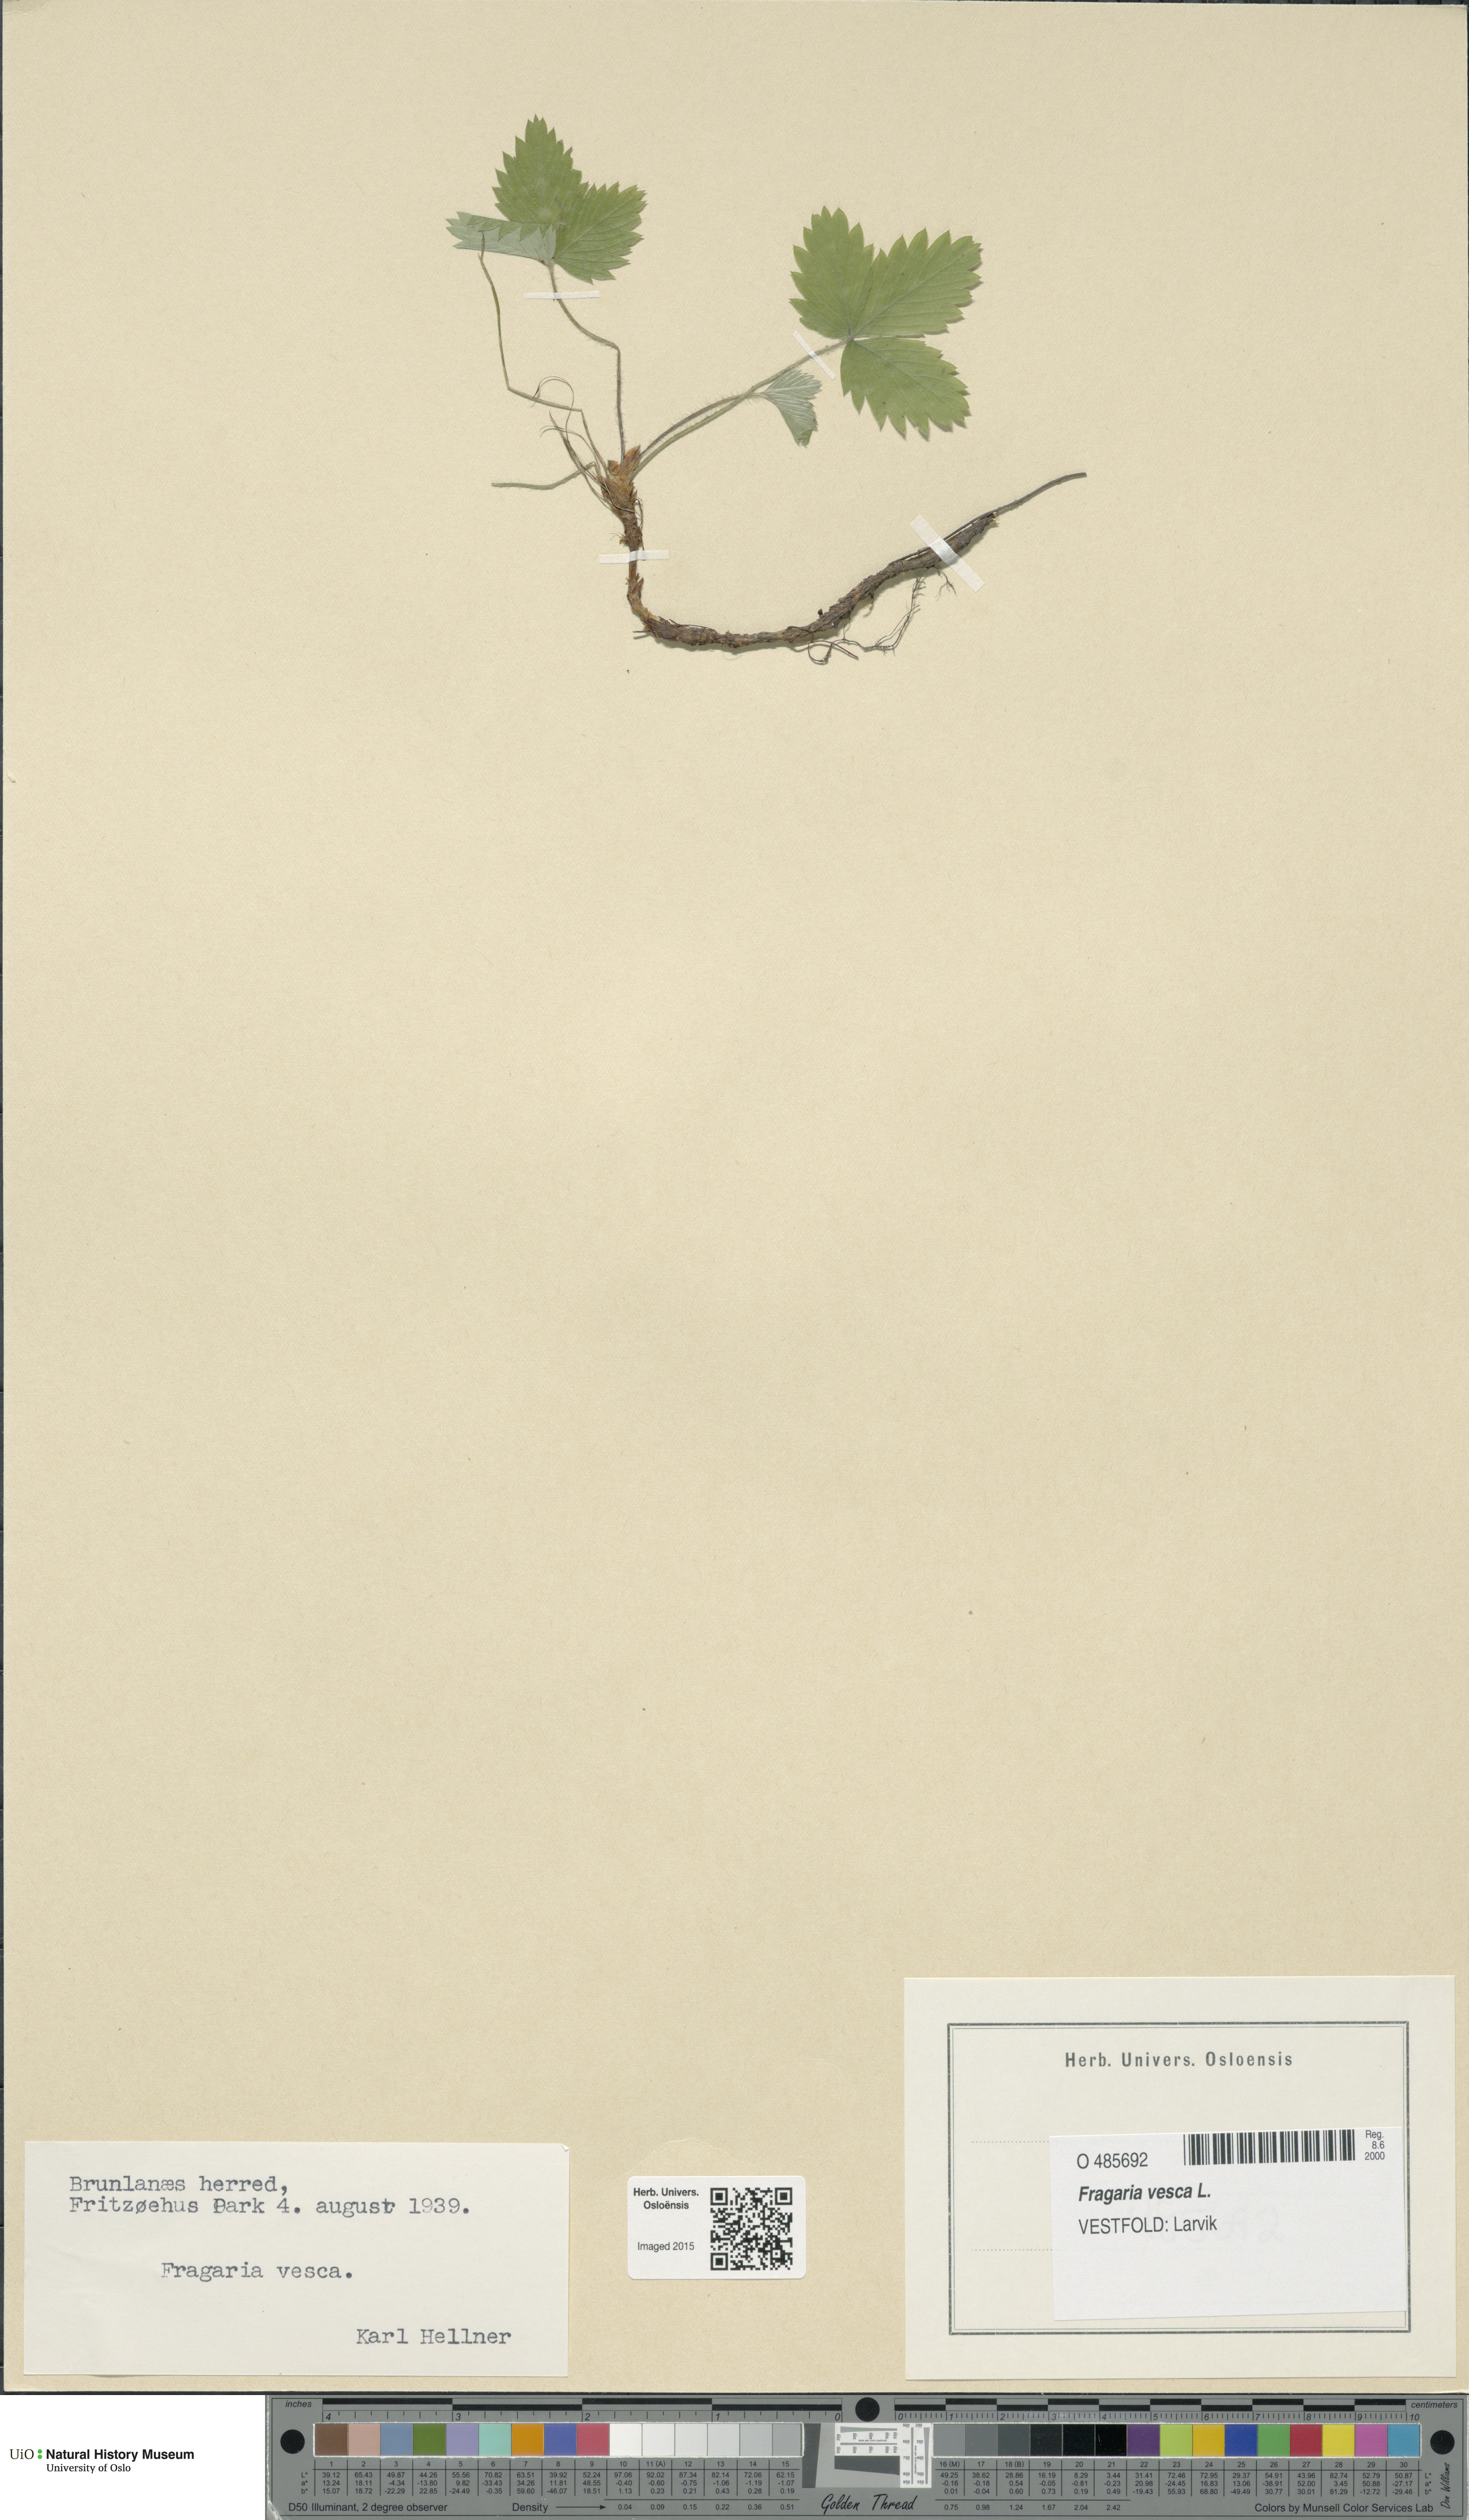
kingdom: Plantae
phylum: Tracheophyta
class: Magnoliopsida
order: Rosales
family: Rosaceae
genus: Fragaria
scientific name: Fragaria vesca
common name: Wild strawberry
